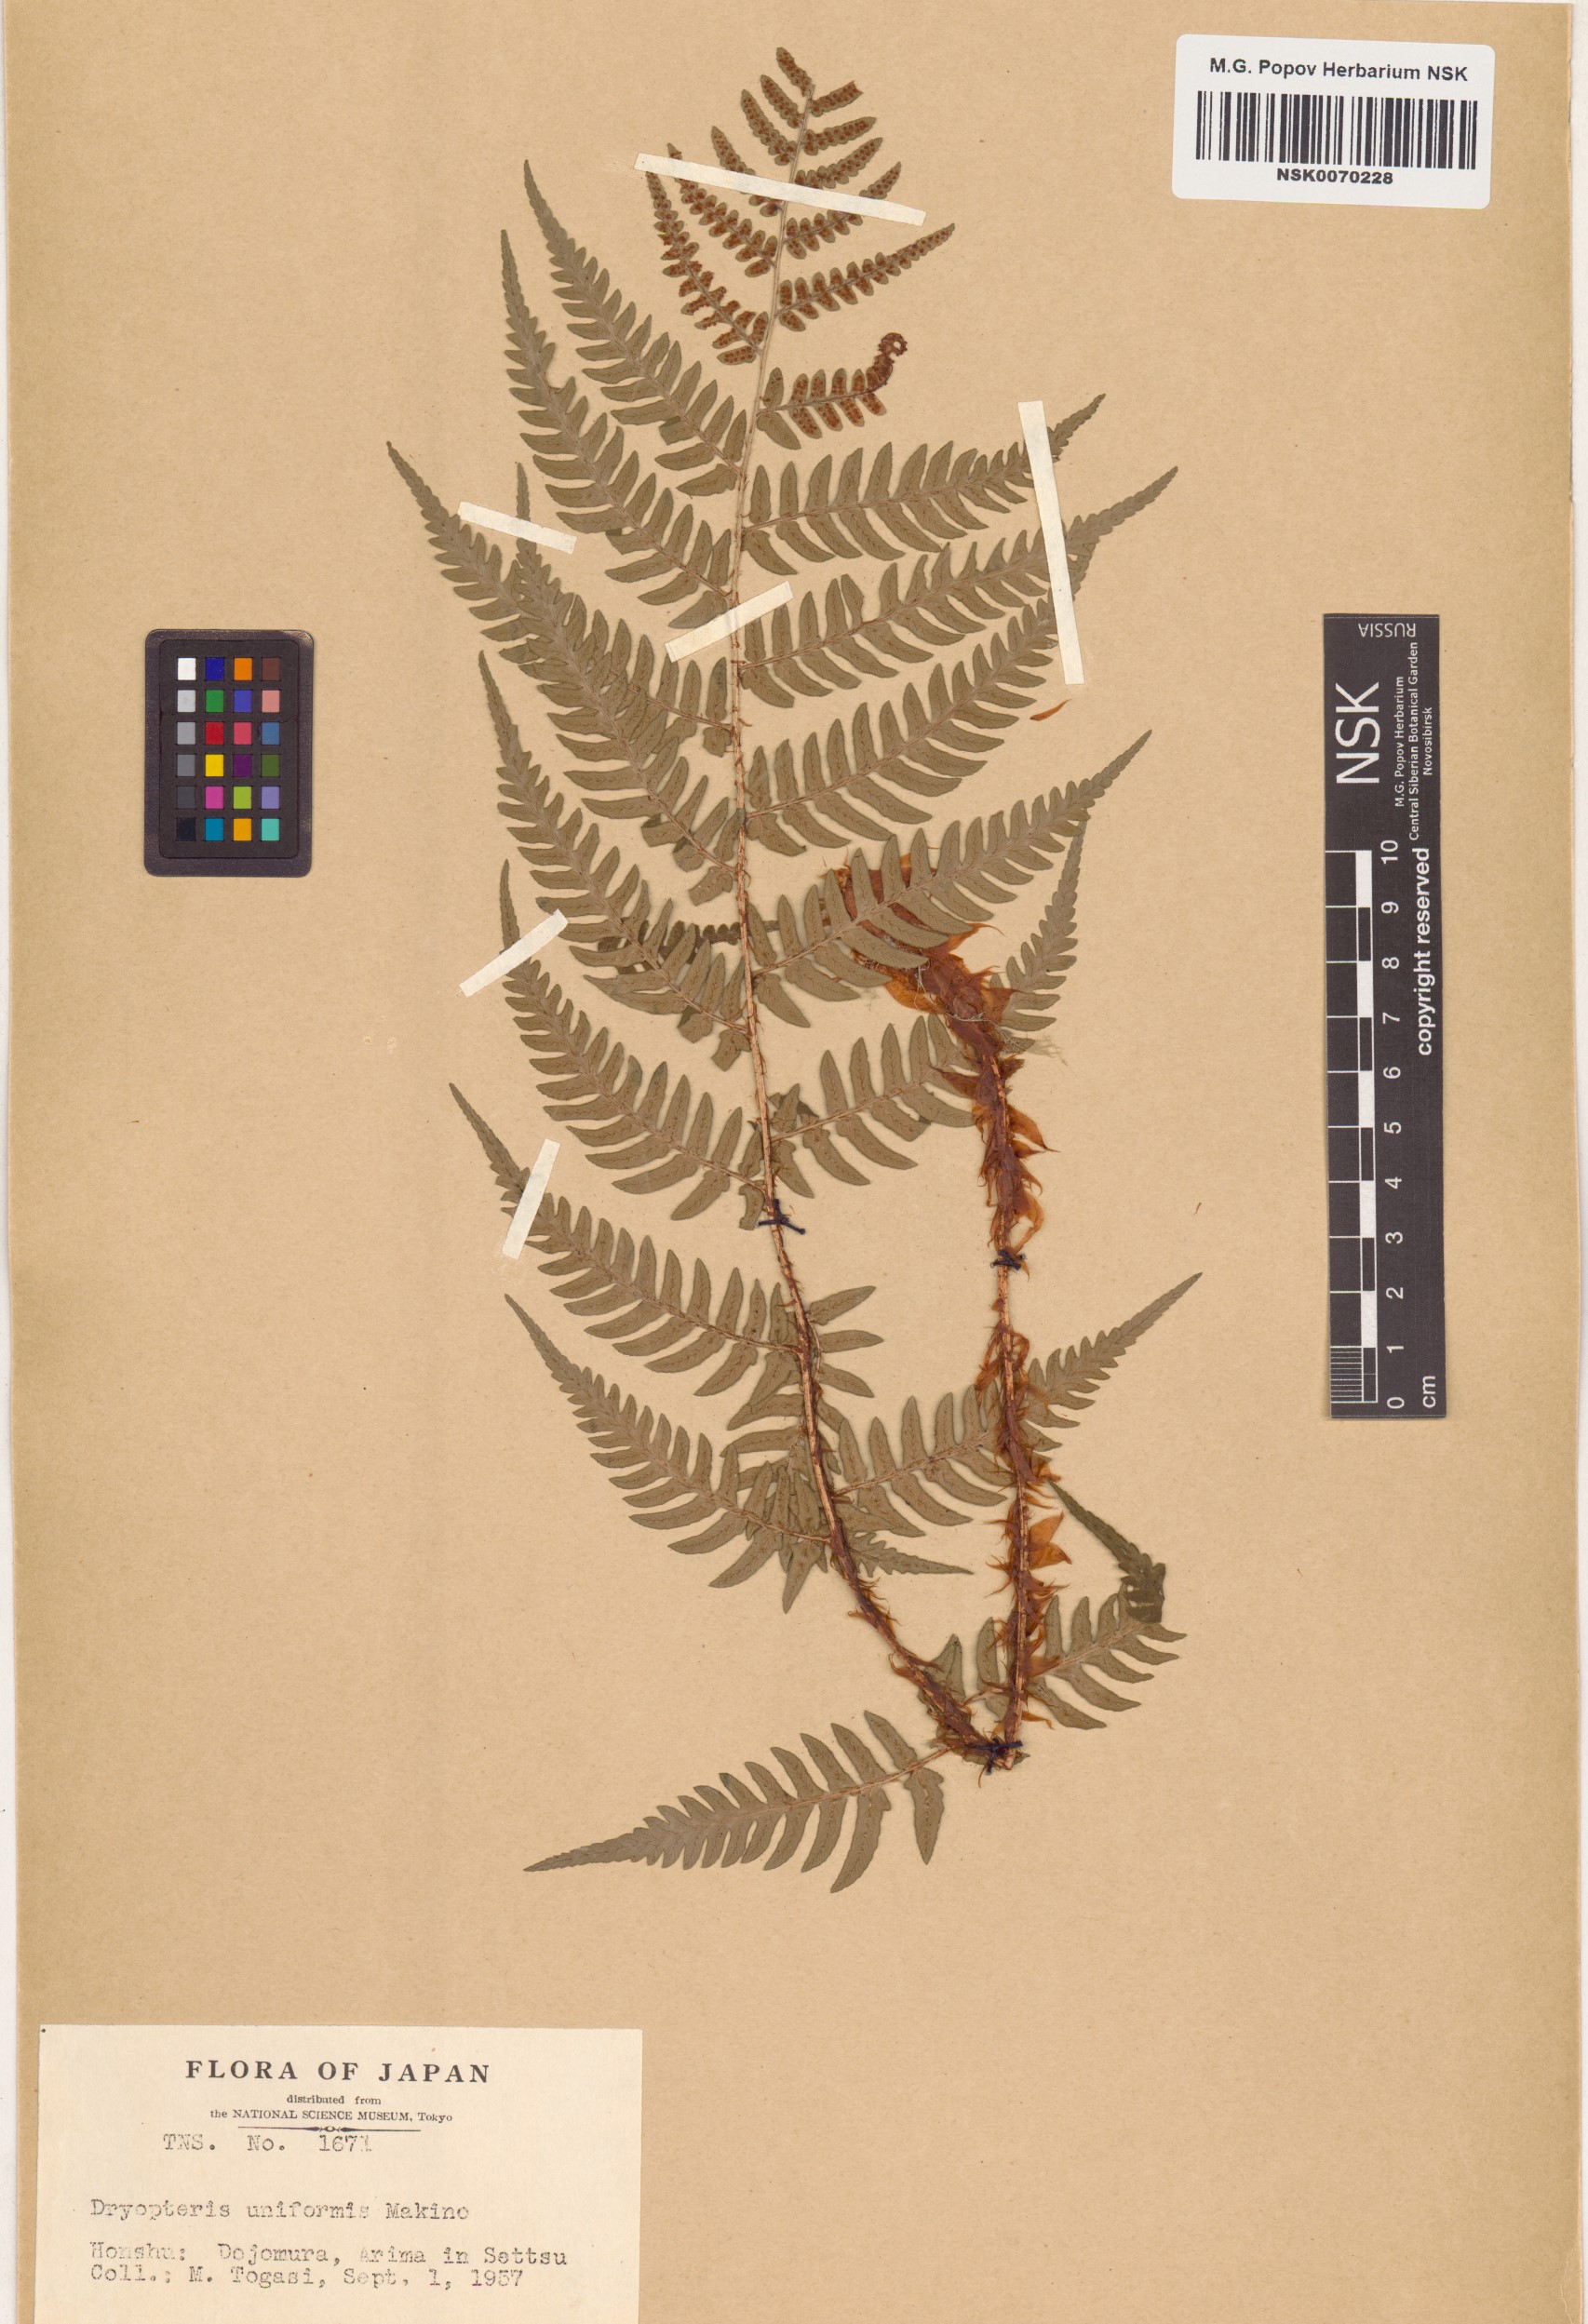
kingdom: Plantae
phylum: Tracheophyta
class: Polypodiopsida
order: Polypodiales
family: Dryopteridaceae
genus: Dryopteris
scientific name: Dryopteris uniformis
